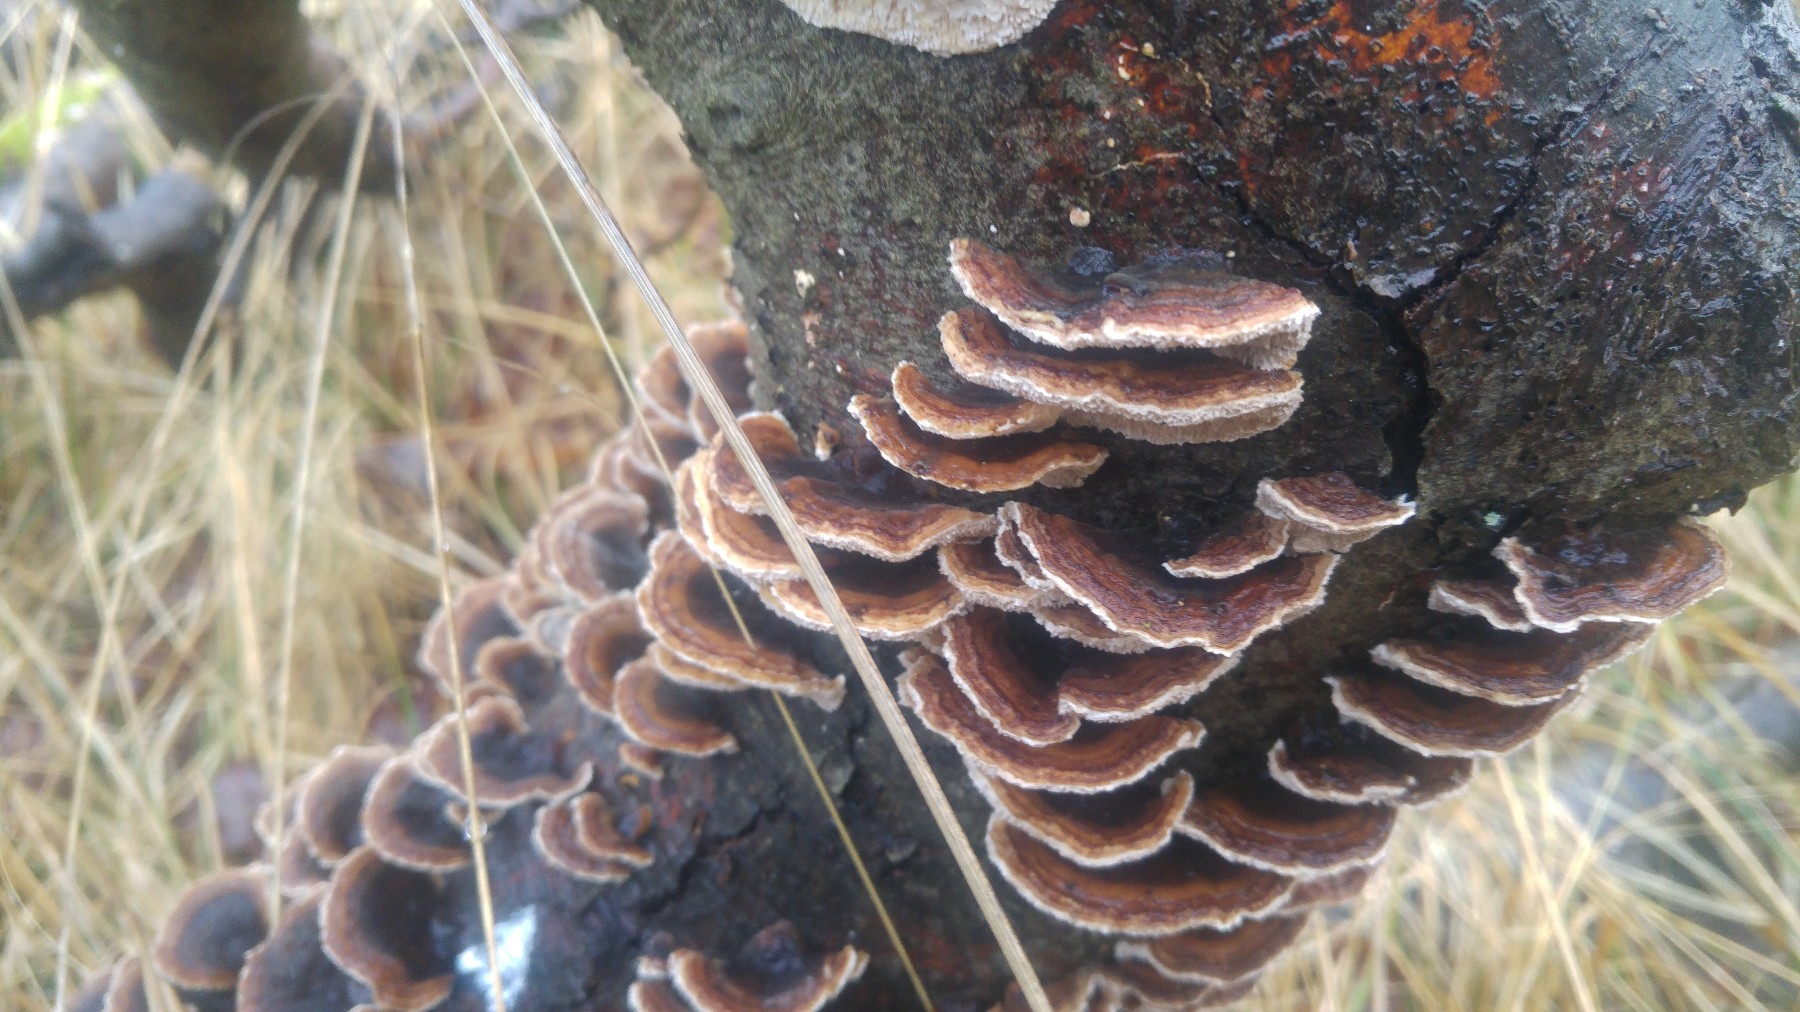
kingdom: Fungi
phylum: Basidiomycota
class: Agaricomycetes
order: Polyporales
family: Polyporaceae
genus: Trametes
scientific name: Trametes versicolor
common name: broget læderporesvamp
